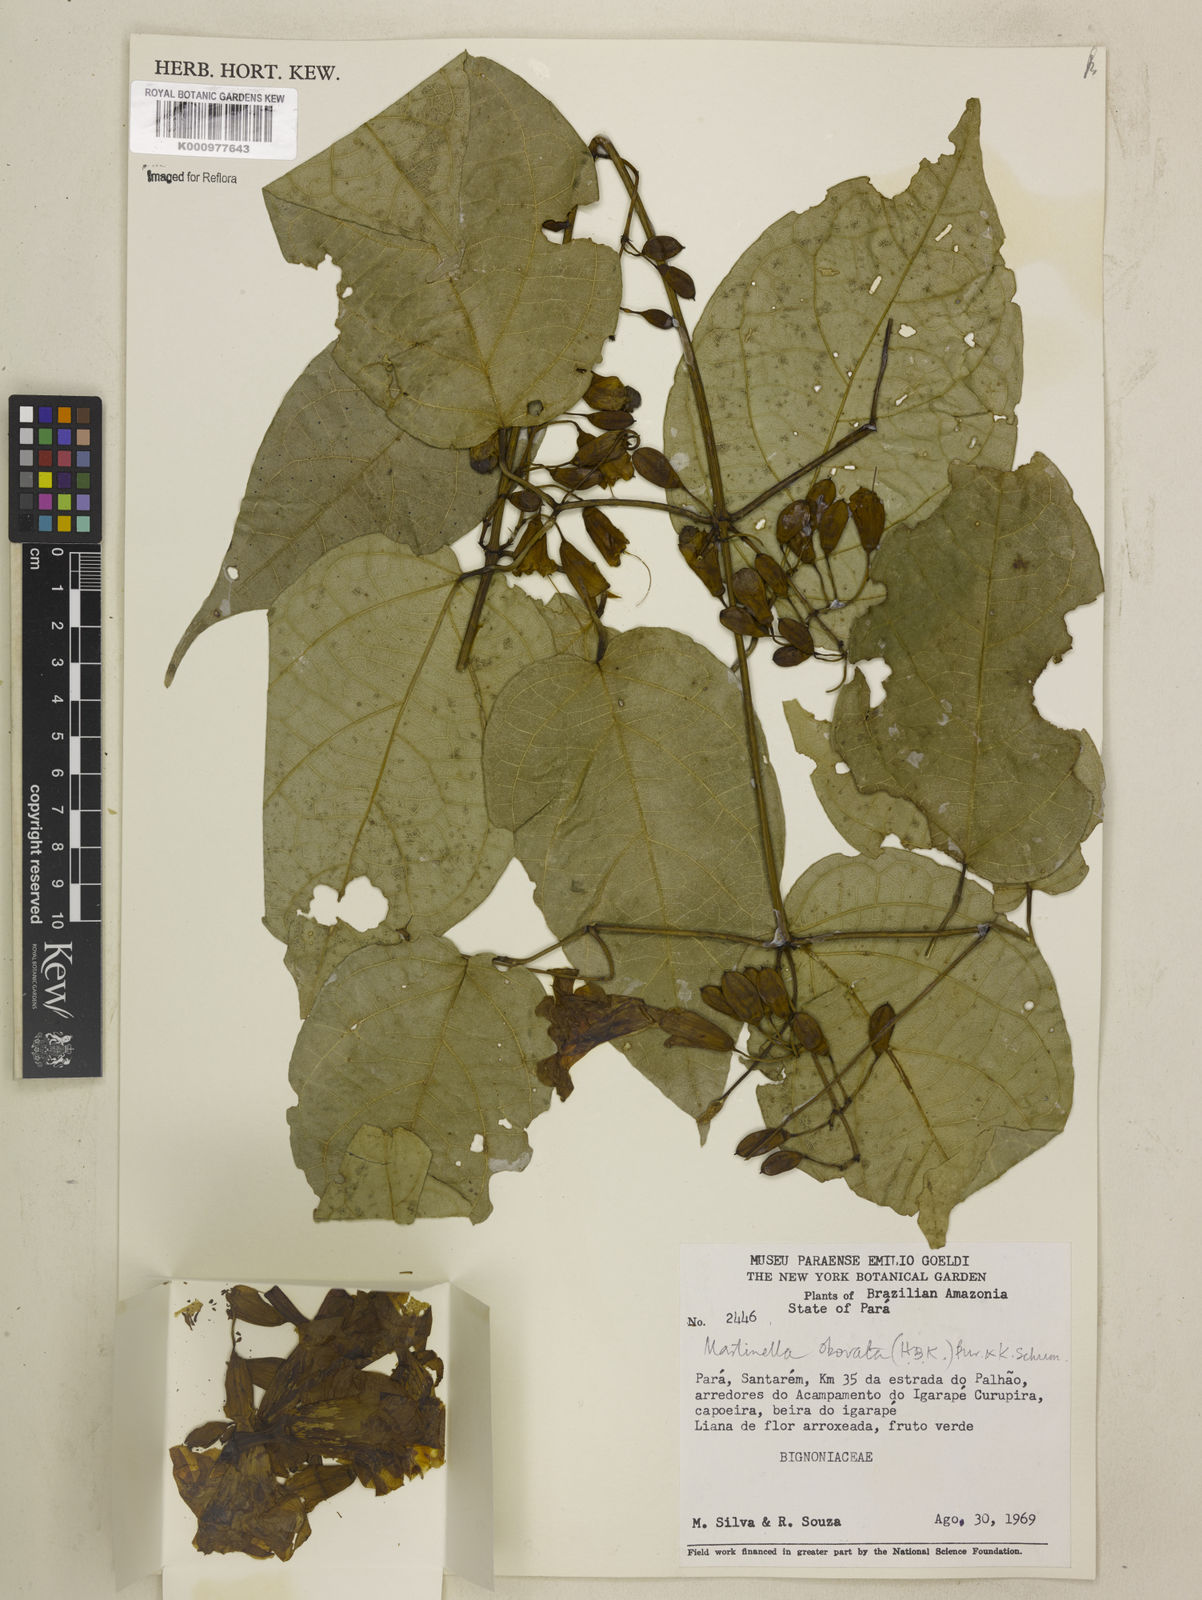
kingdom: Animalia
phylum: Arthropoda
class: Insecta
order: Coleoptera
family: Chrysomelidae
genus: Martinella
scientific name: Martinella obovata
